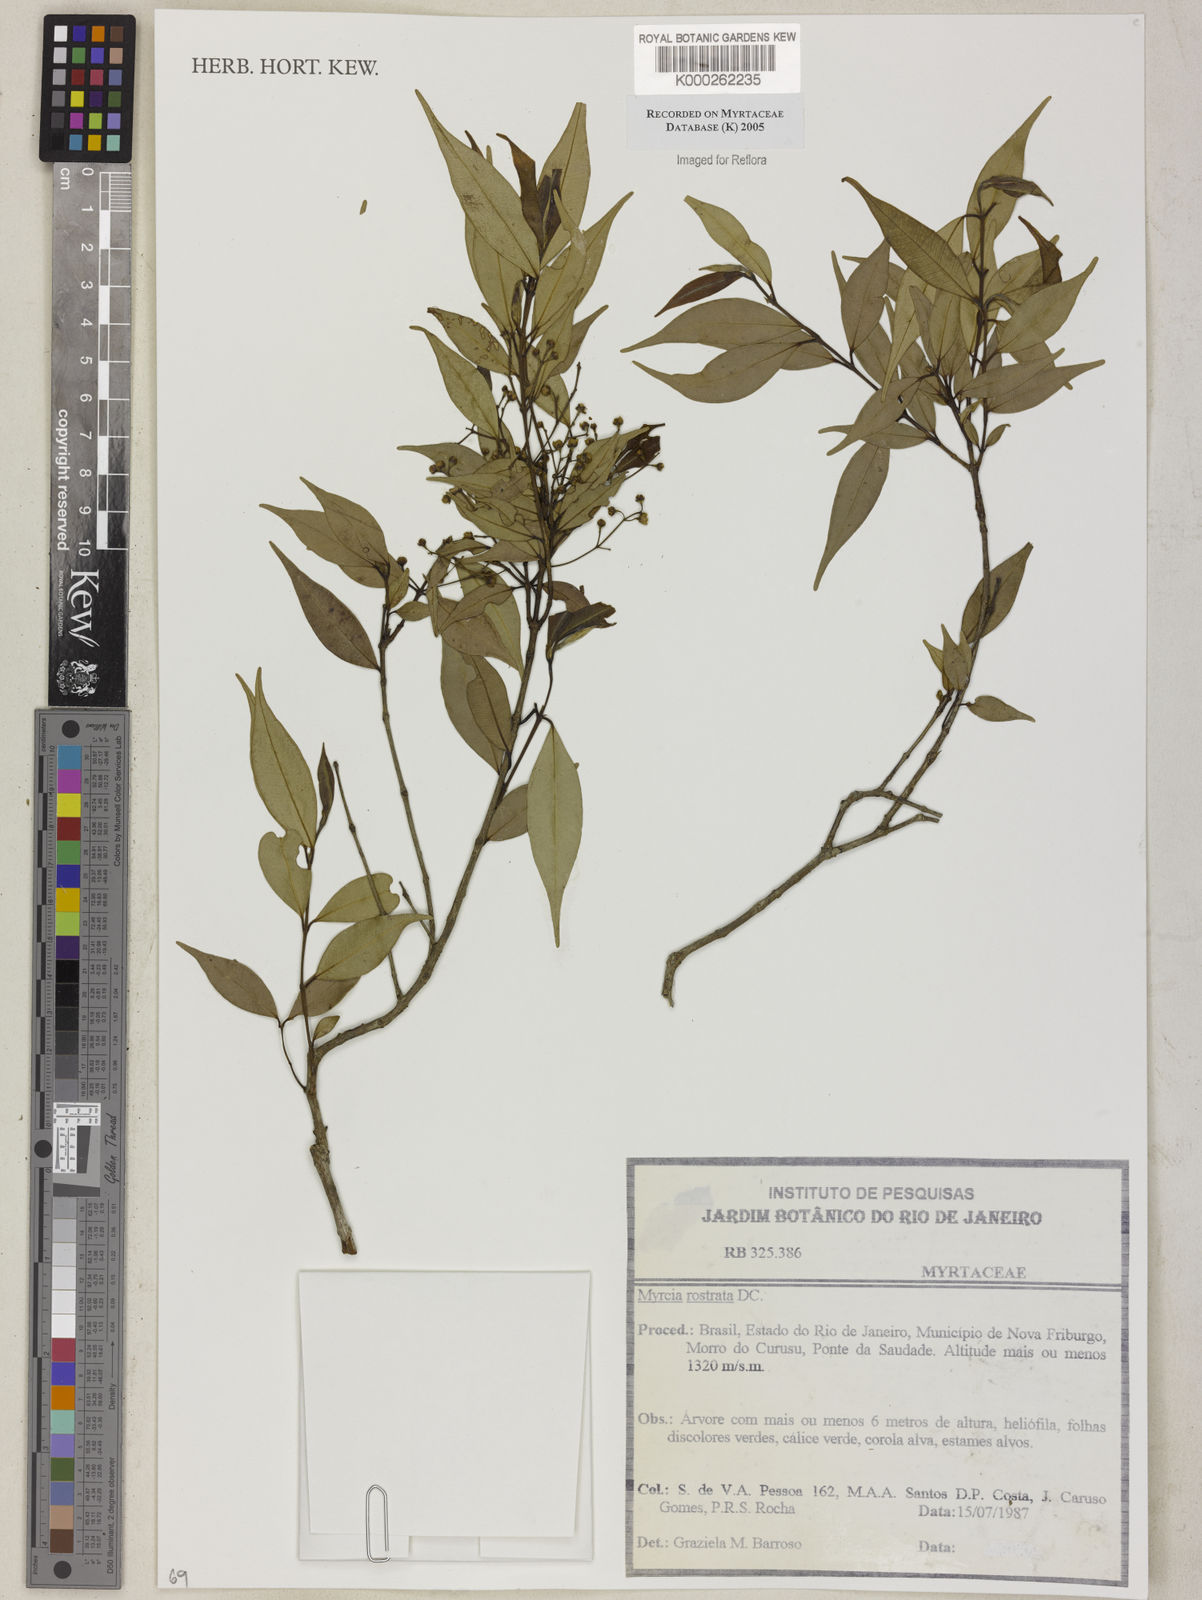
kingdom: Plantae
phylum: Tracheophyta
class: Magnoliopsida
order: Myrtales
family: Myrtaceae
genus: Myrcia
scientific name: Myrcia splendens
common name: Surinam cherry
